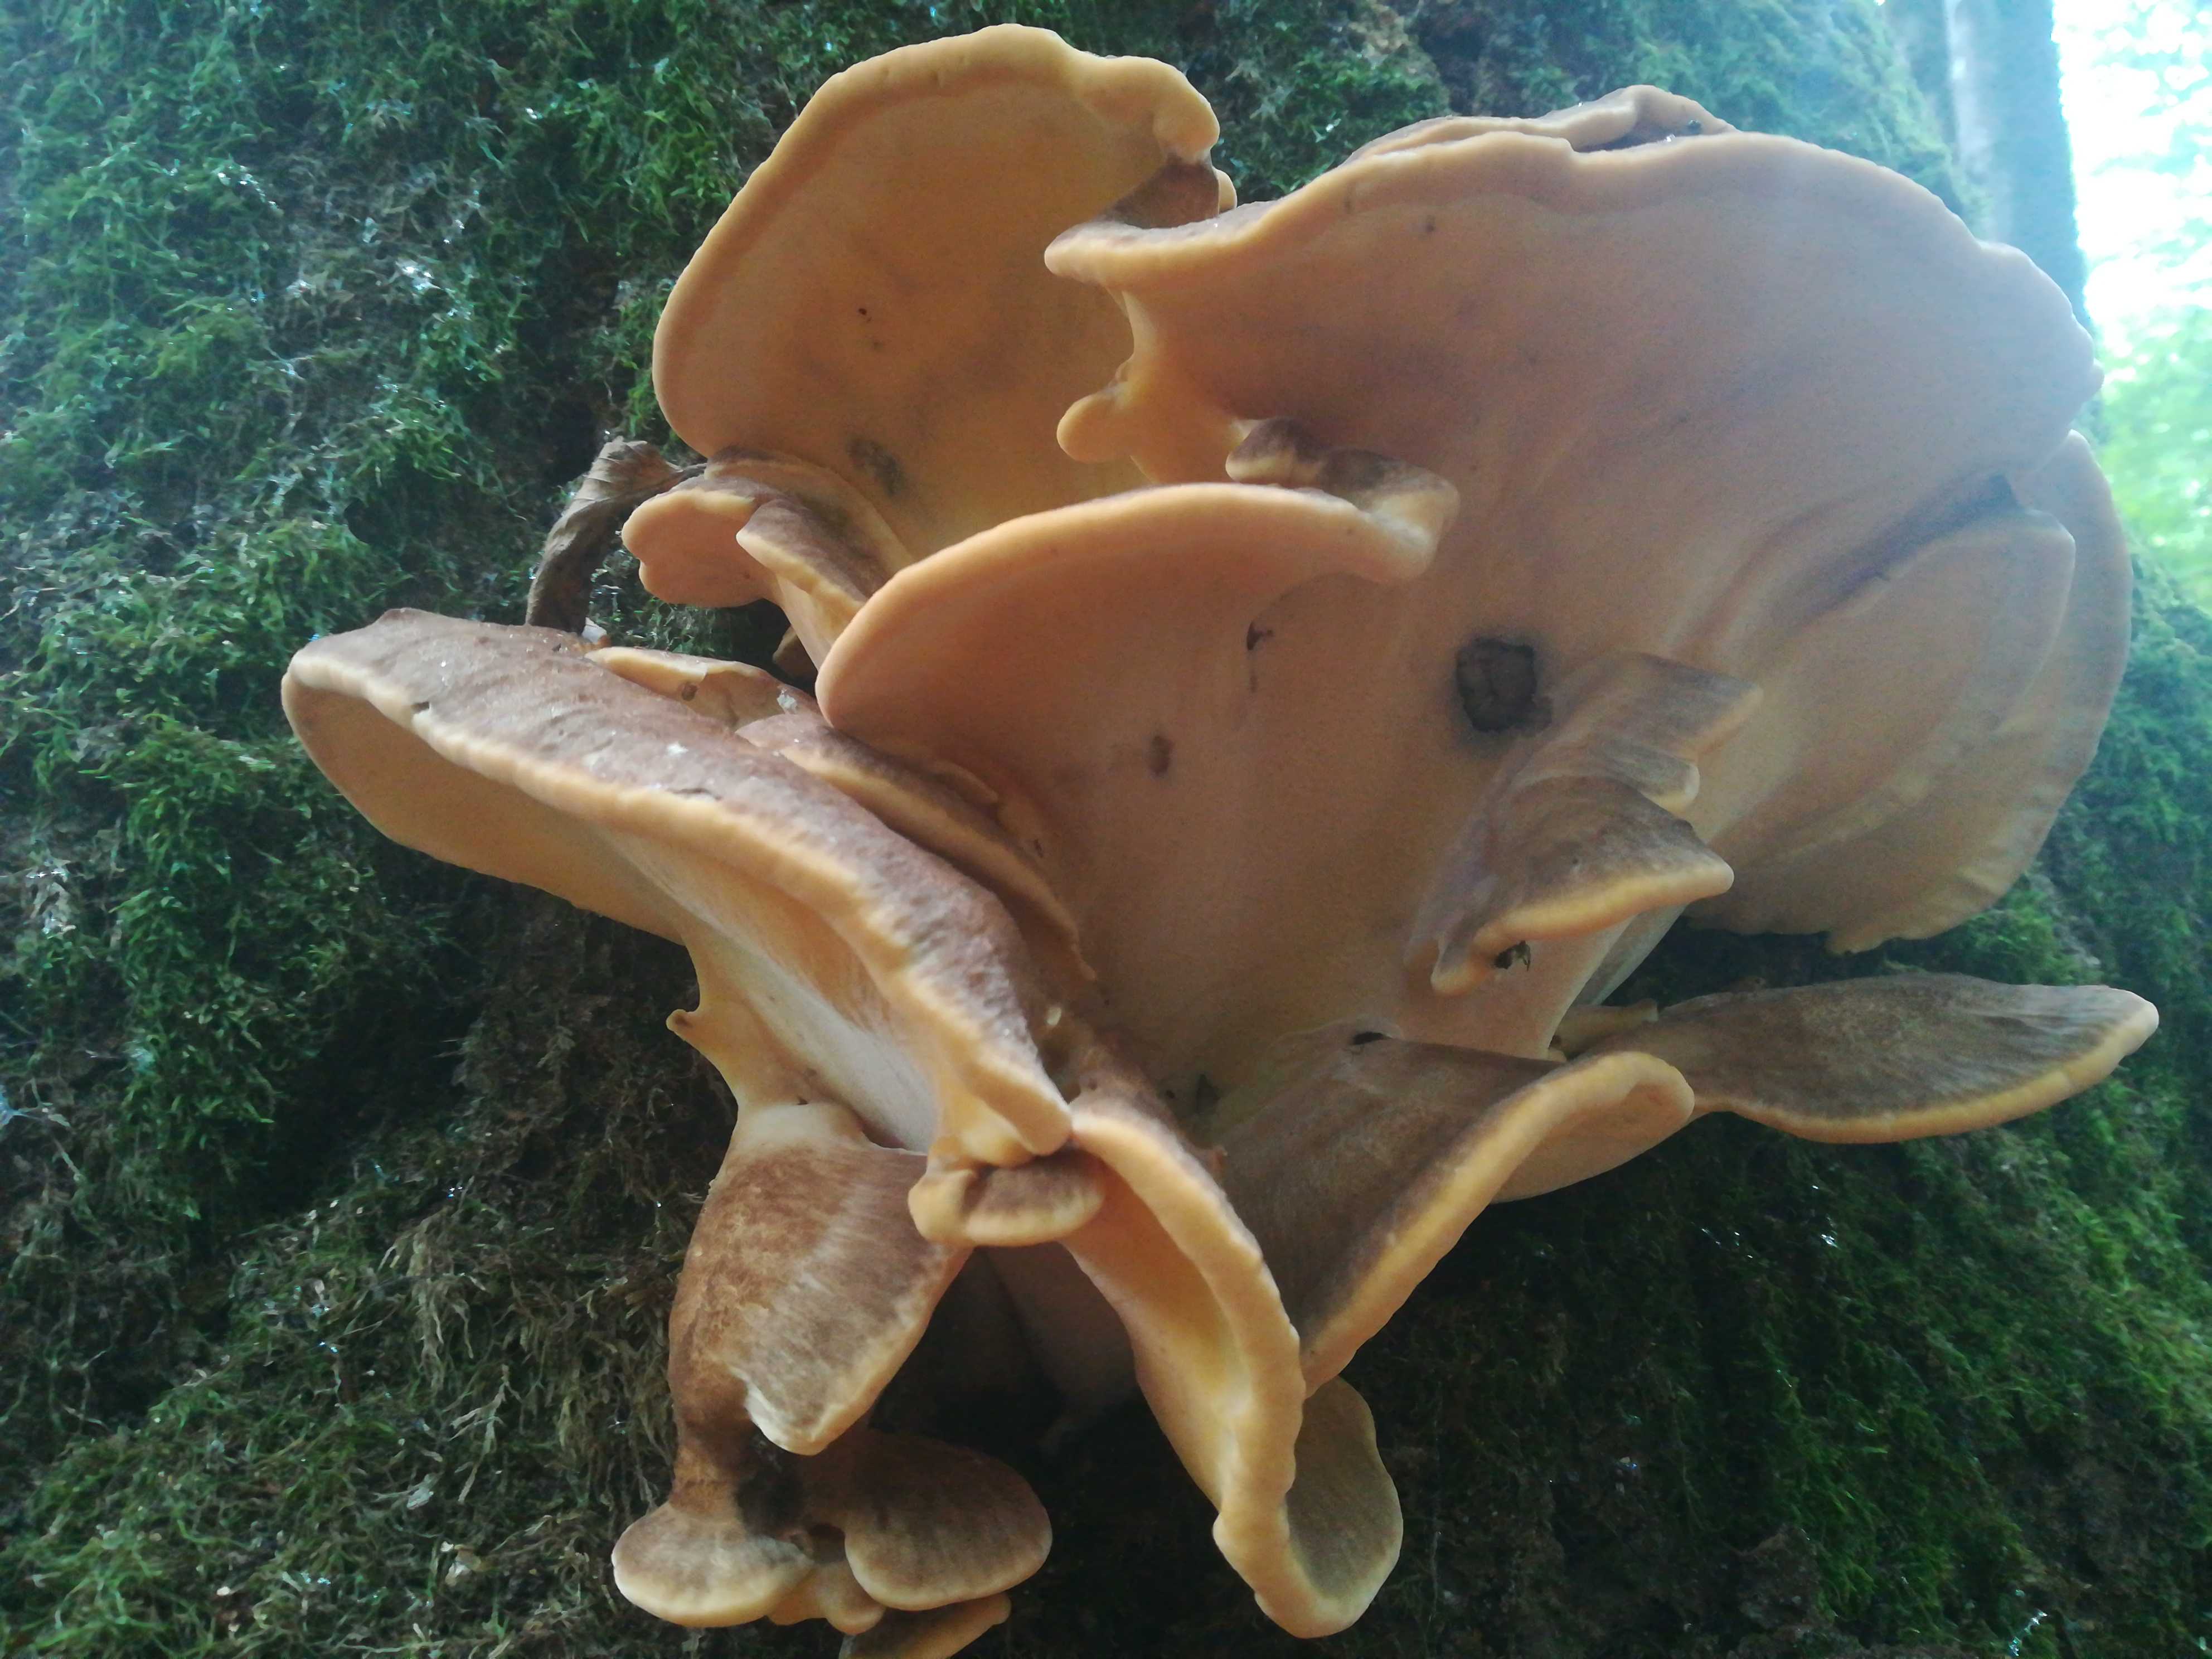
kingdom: Fungi
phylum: Basidiomycota
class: Agaricomycetes
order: Polyporales
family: Meripilaceae
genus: Meripilus
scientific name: Meripilus giganteus
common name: kæmpeporesvamp
